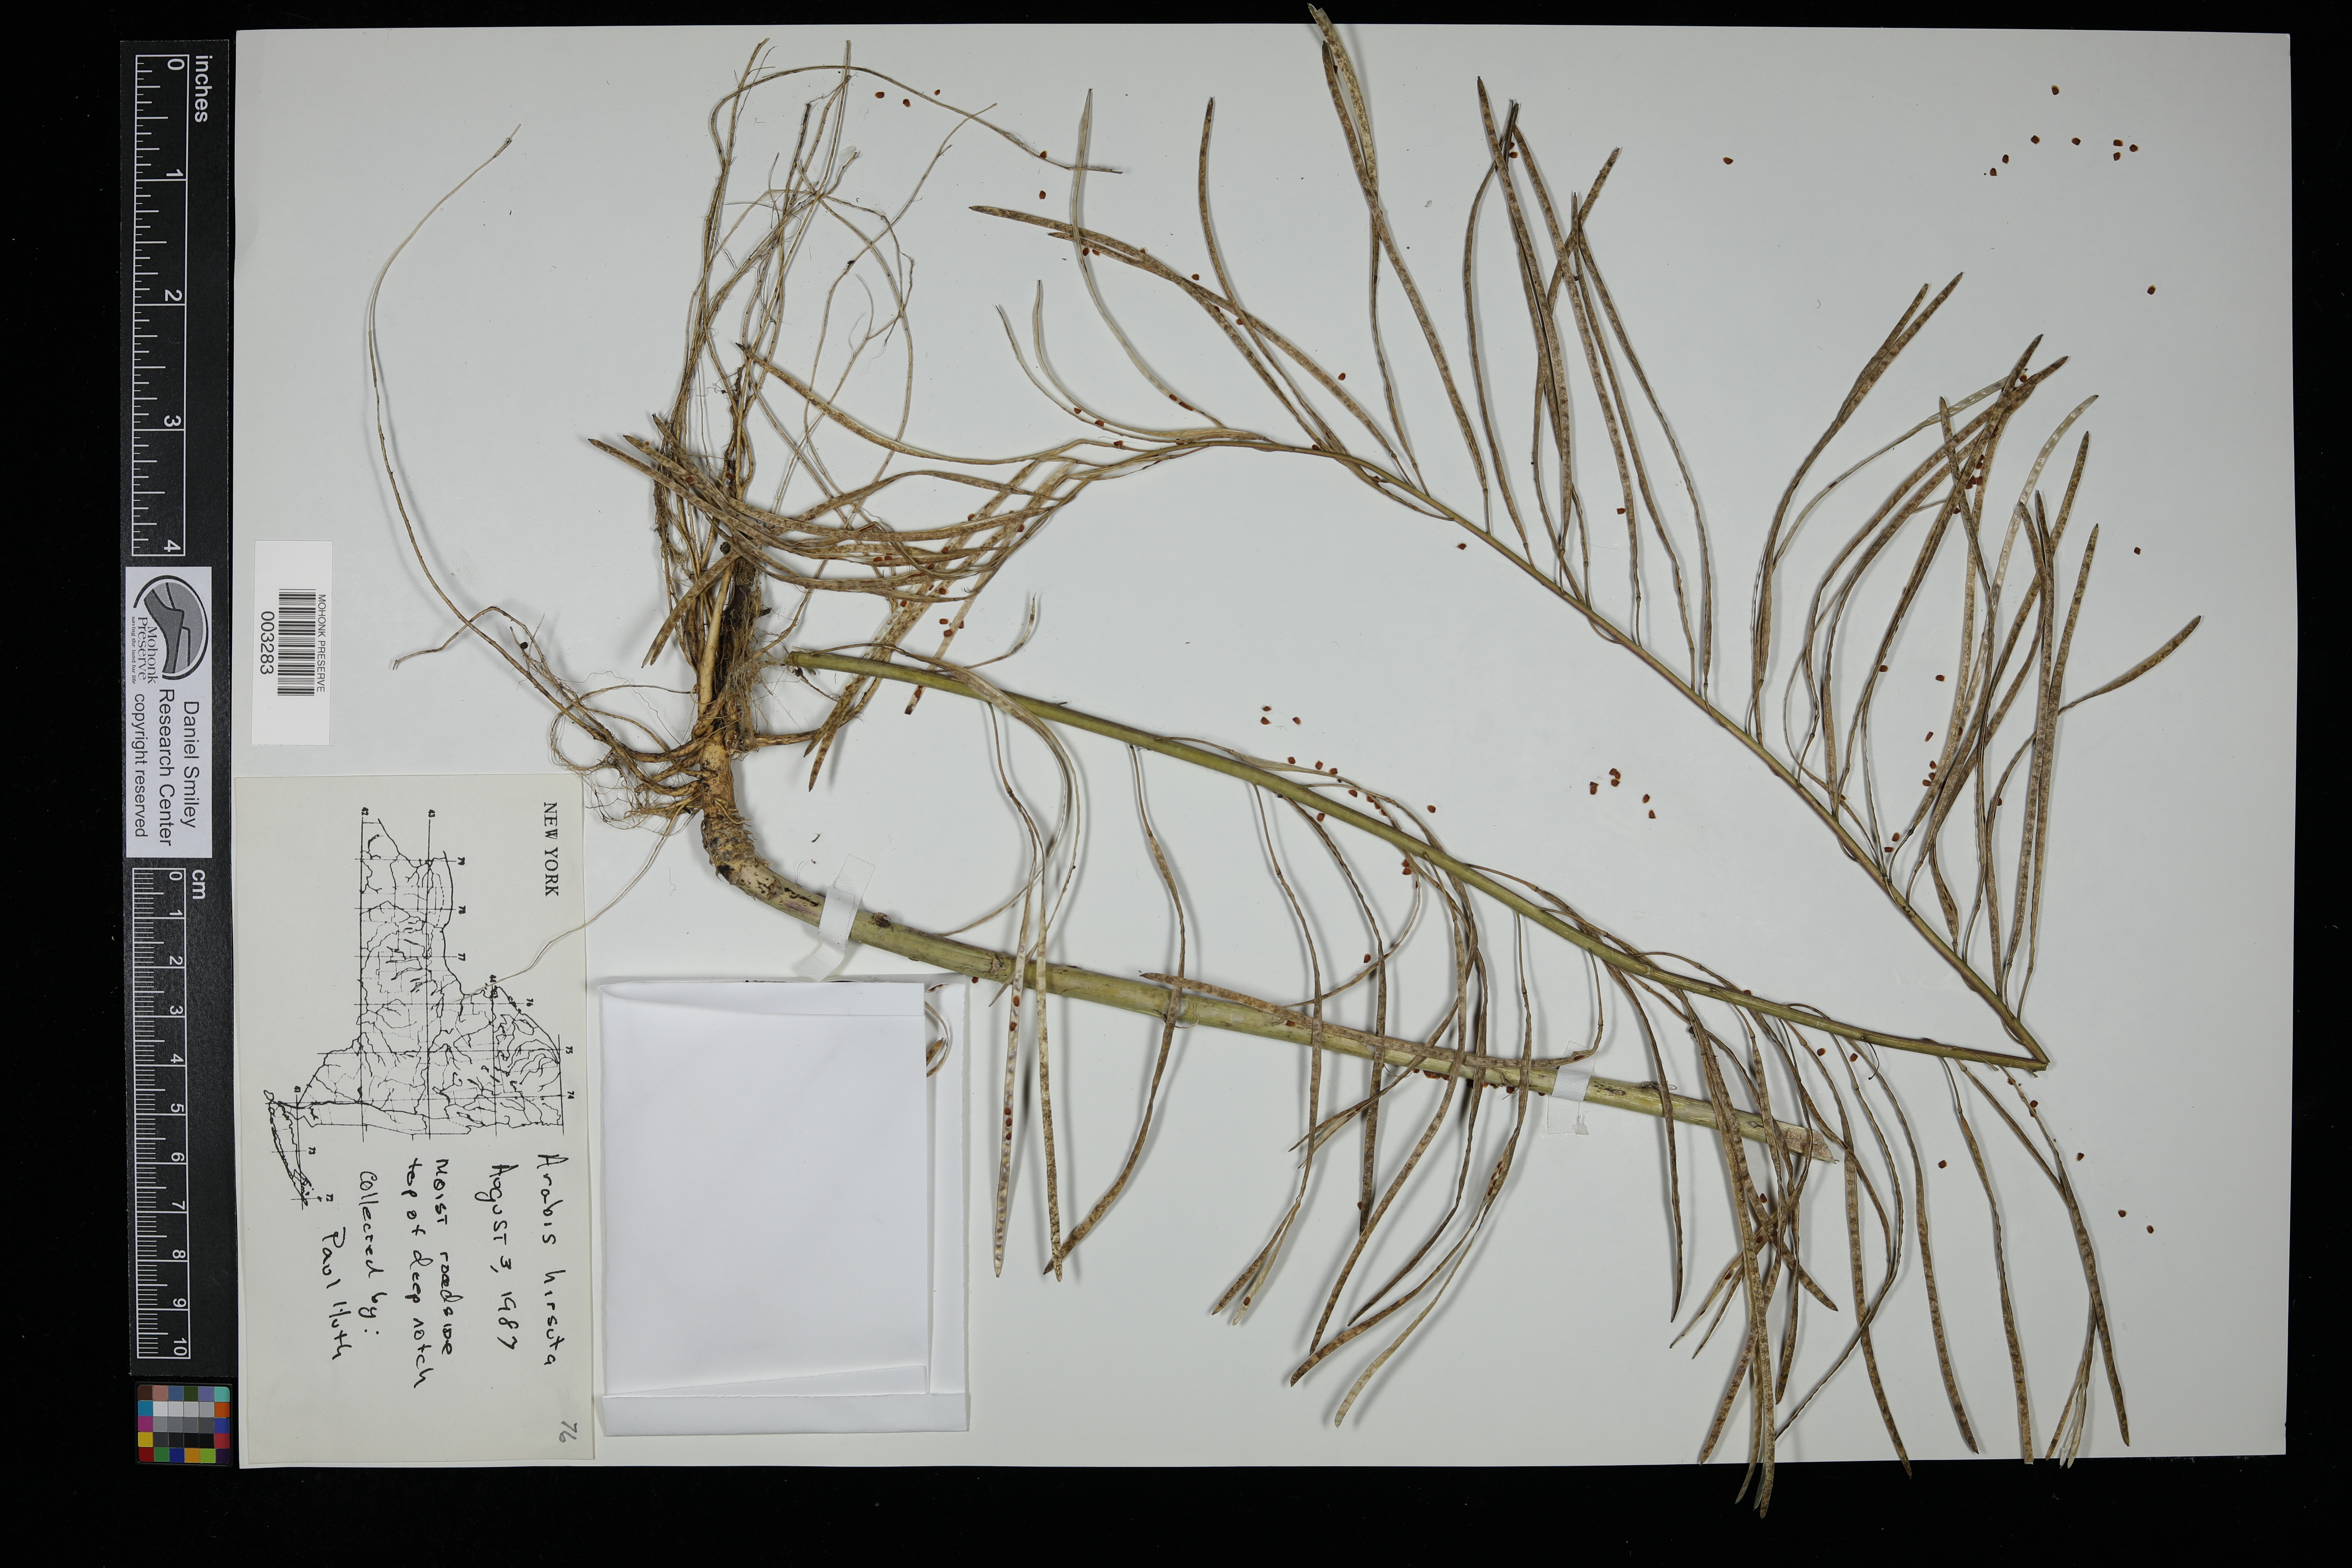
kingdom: Plantae
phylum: Tracheophyta
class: Magnoliopsida
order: Brassicales
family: Brassicaceae
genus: Arabis
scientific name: Arabis hirsuta
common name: Hairy rock-cress
